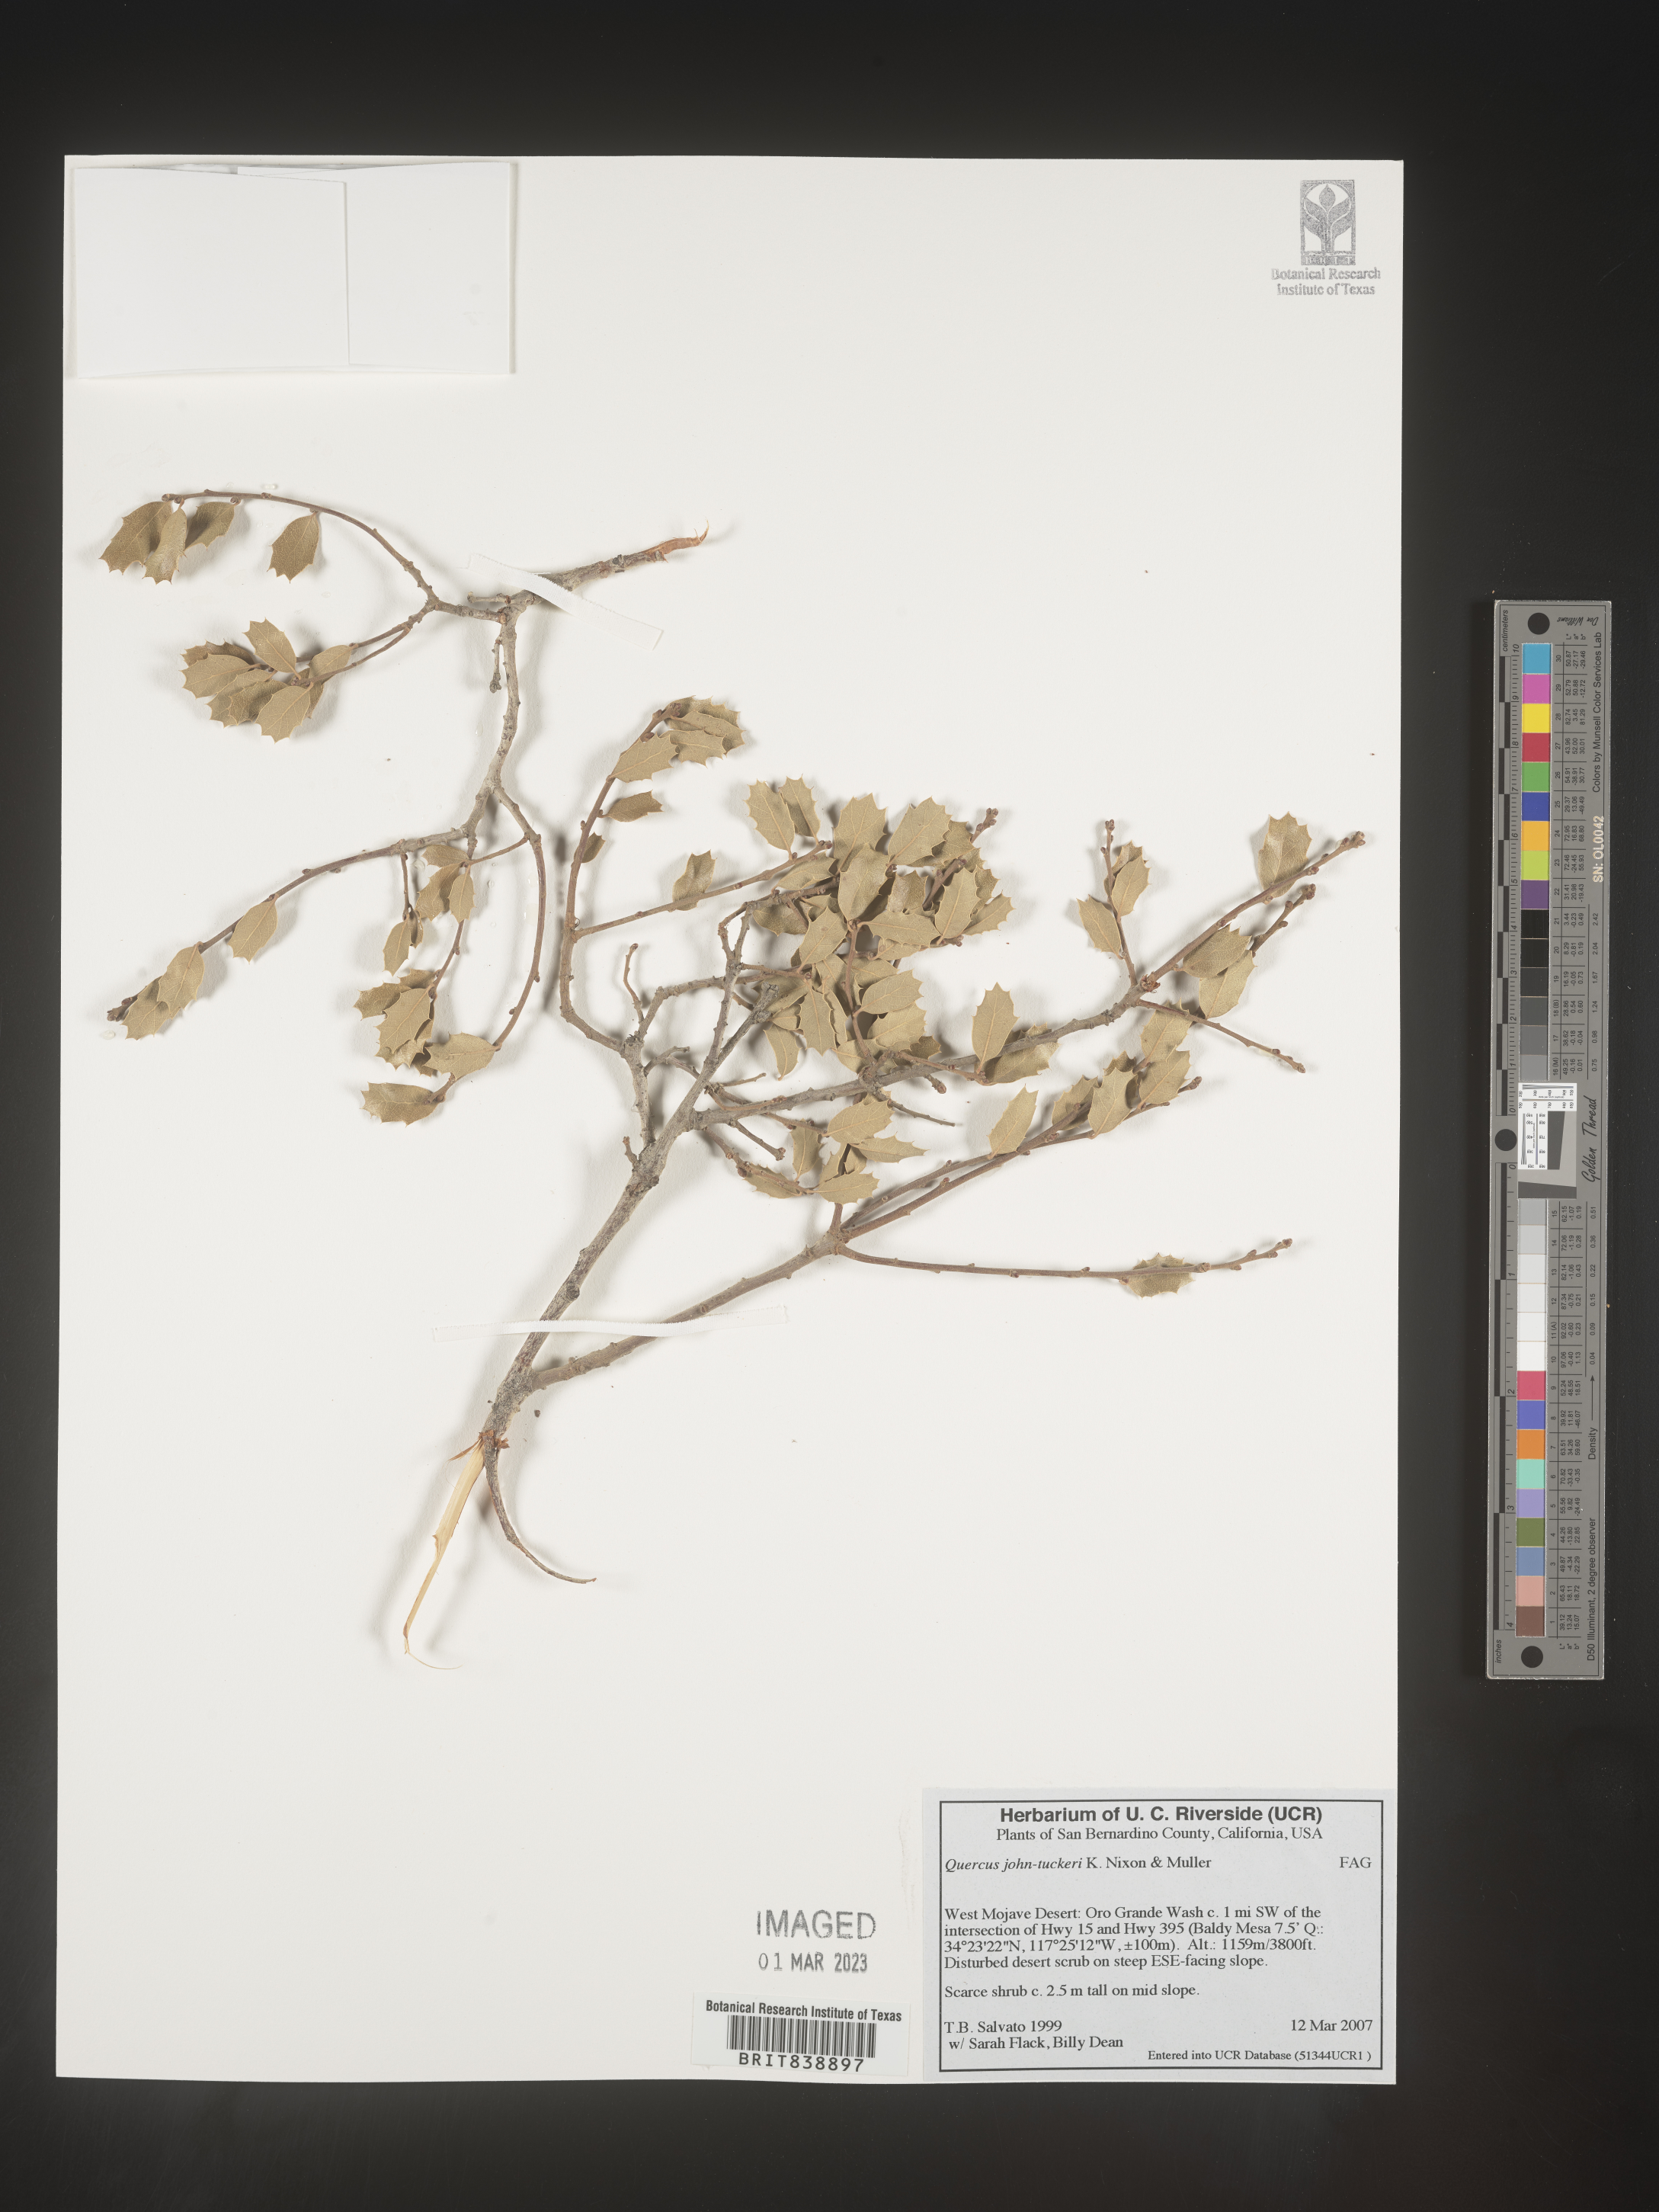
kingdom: Plantae
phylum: Tracheophyta
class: Magnoliopsida
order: Fagales
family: Fagaceae
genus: Quercus
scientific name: Quercus john-tuckeri
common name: Tucker's oak
